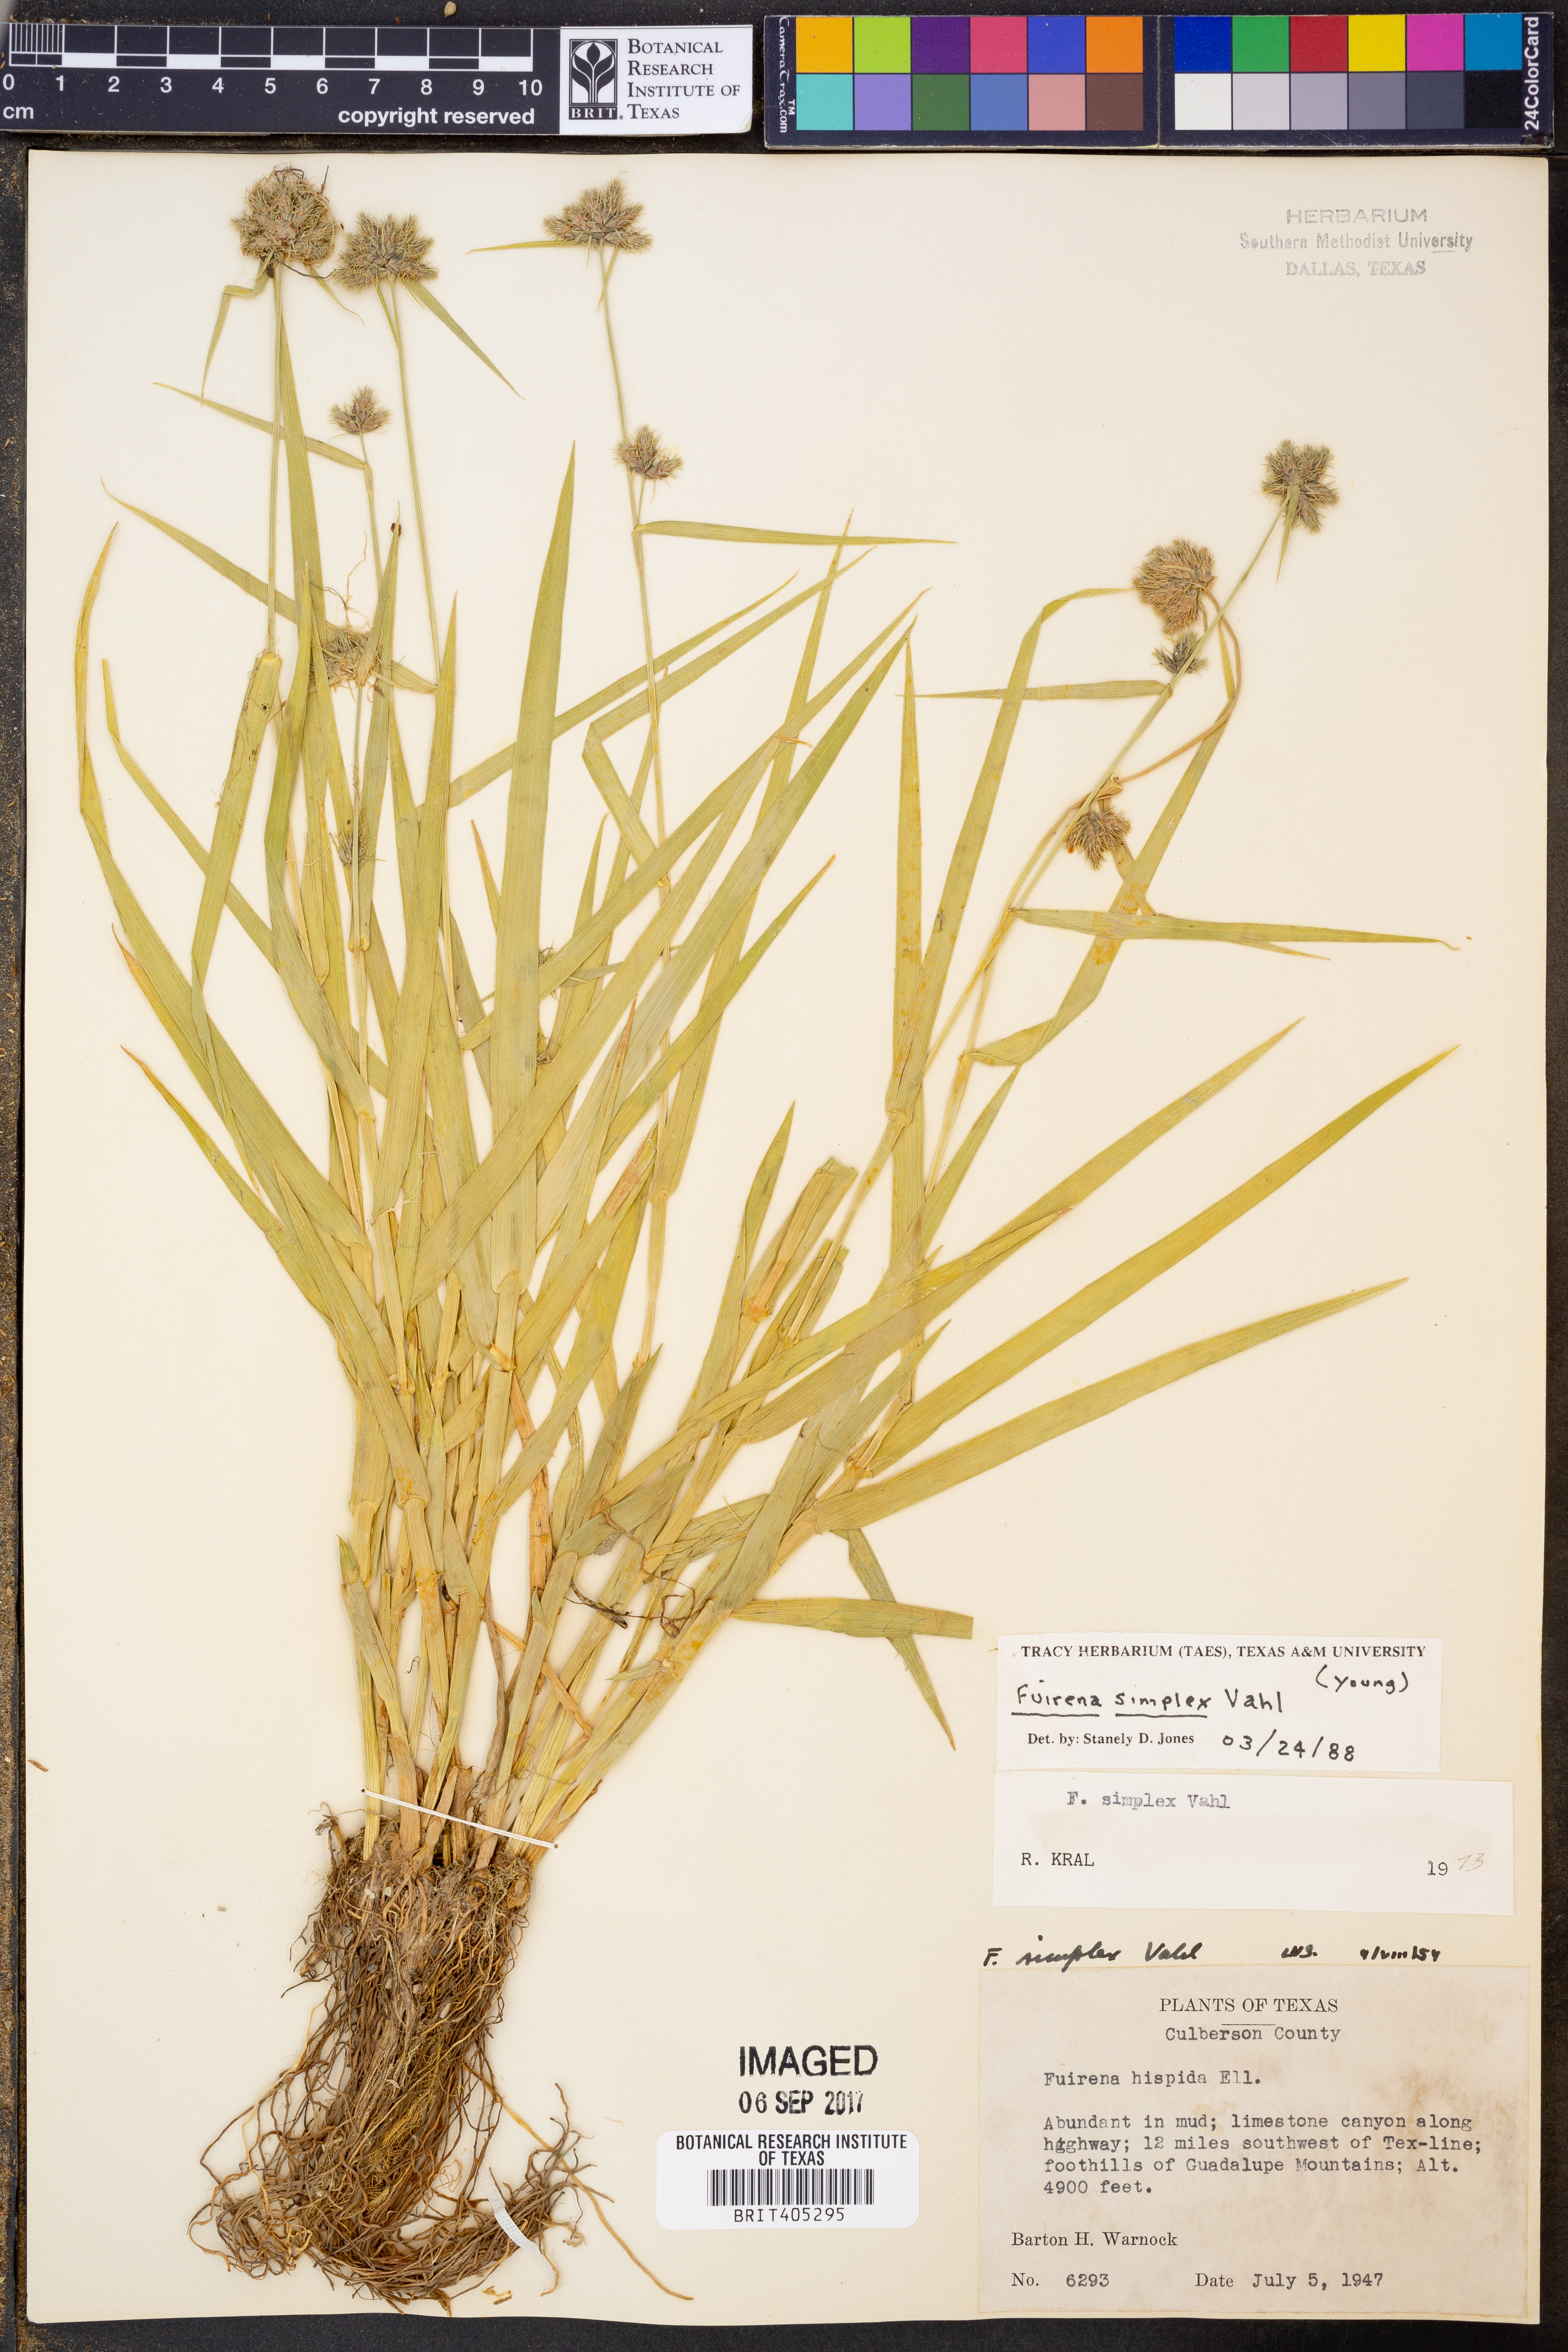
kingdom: Plantae
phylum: Tracheophyta
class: Liliopsida
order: Poales
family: Cyperaceae
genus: Fuirena
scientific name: Fuirena simplex
